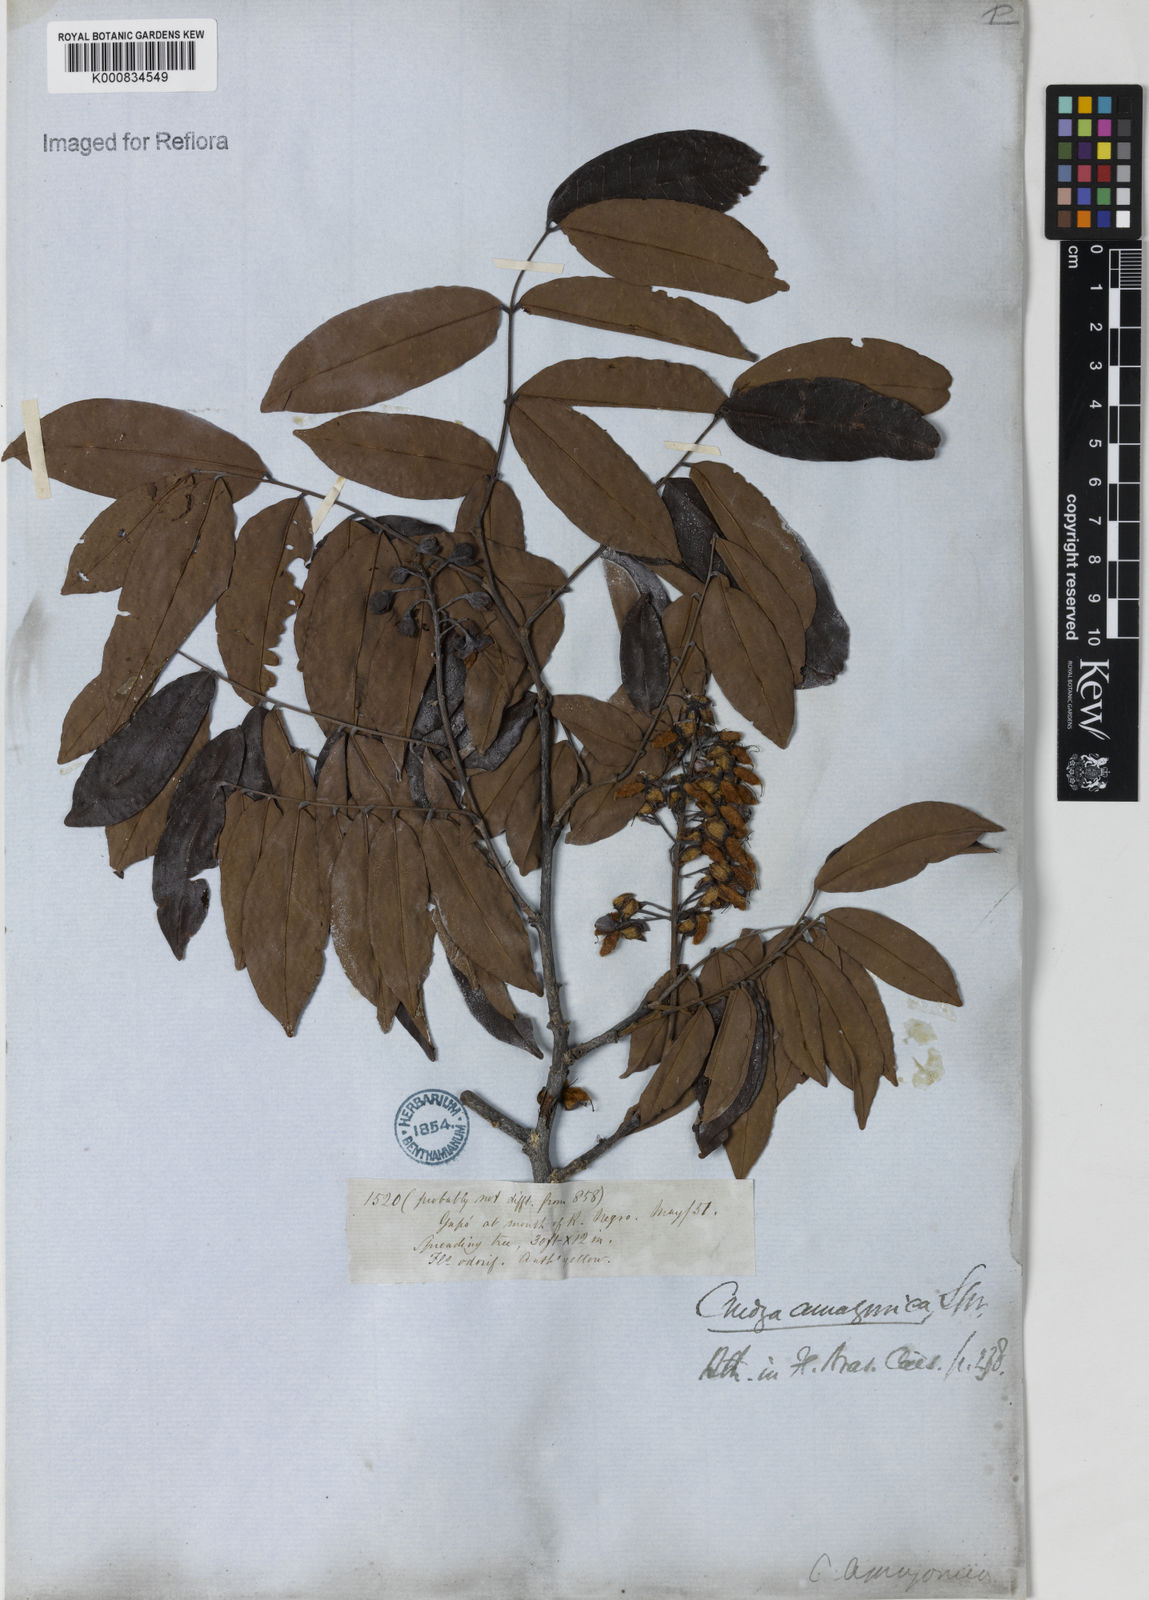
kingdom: Plantae
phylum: Tracheophyta
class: Magnoliopsida
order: Fabales
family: Fabaceae
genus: Crudia
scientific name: Crudia
